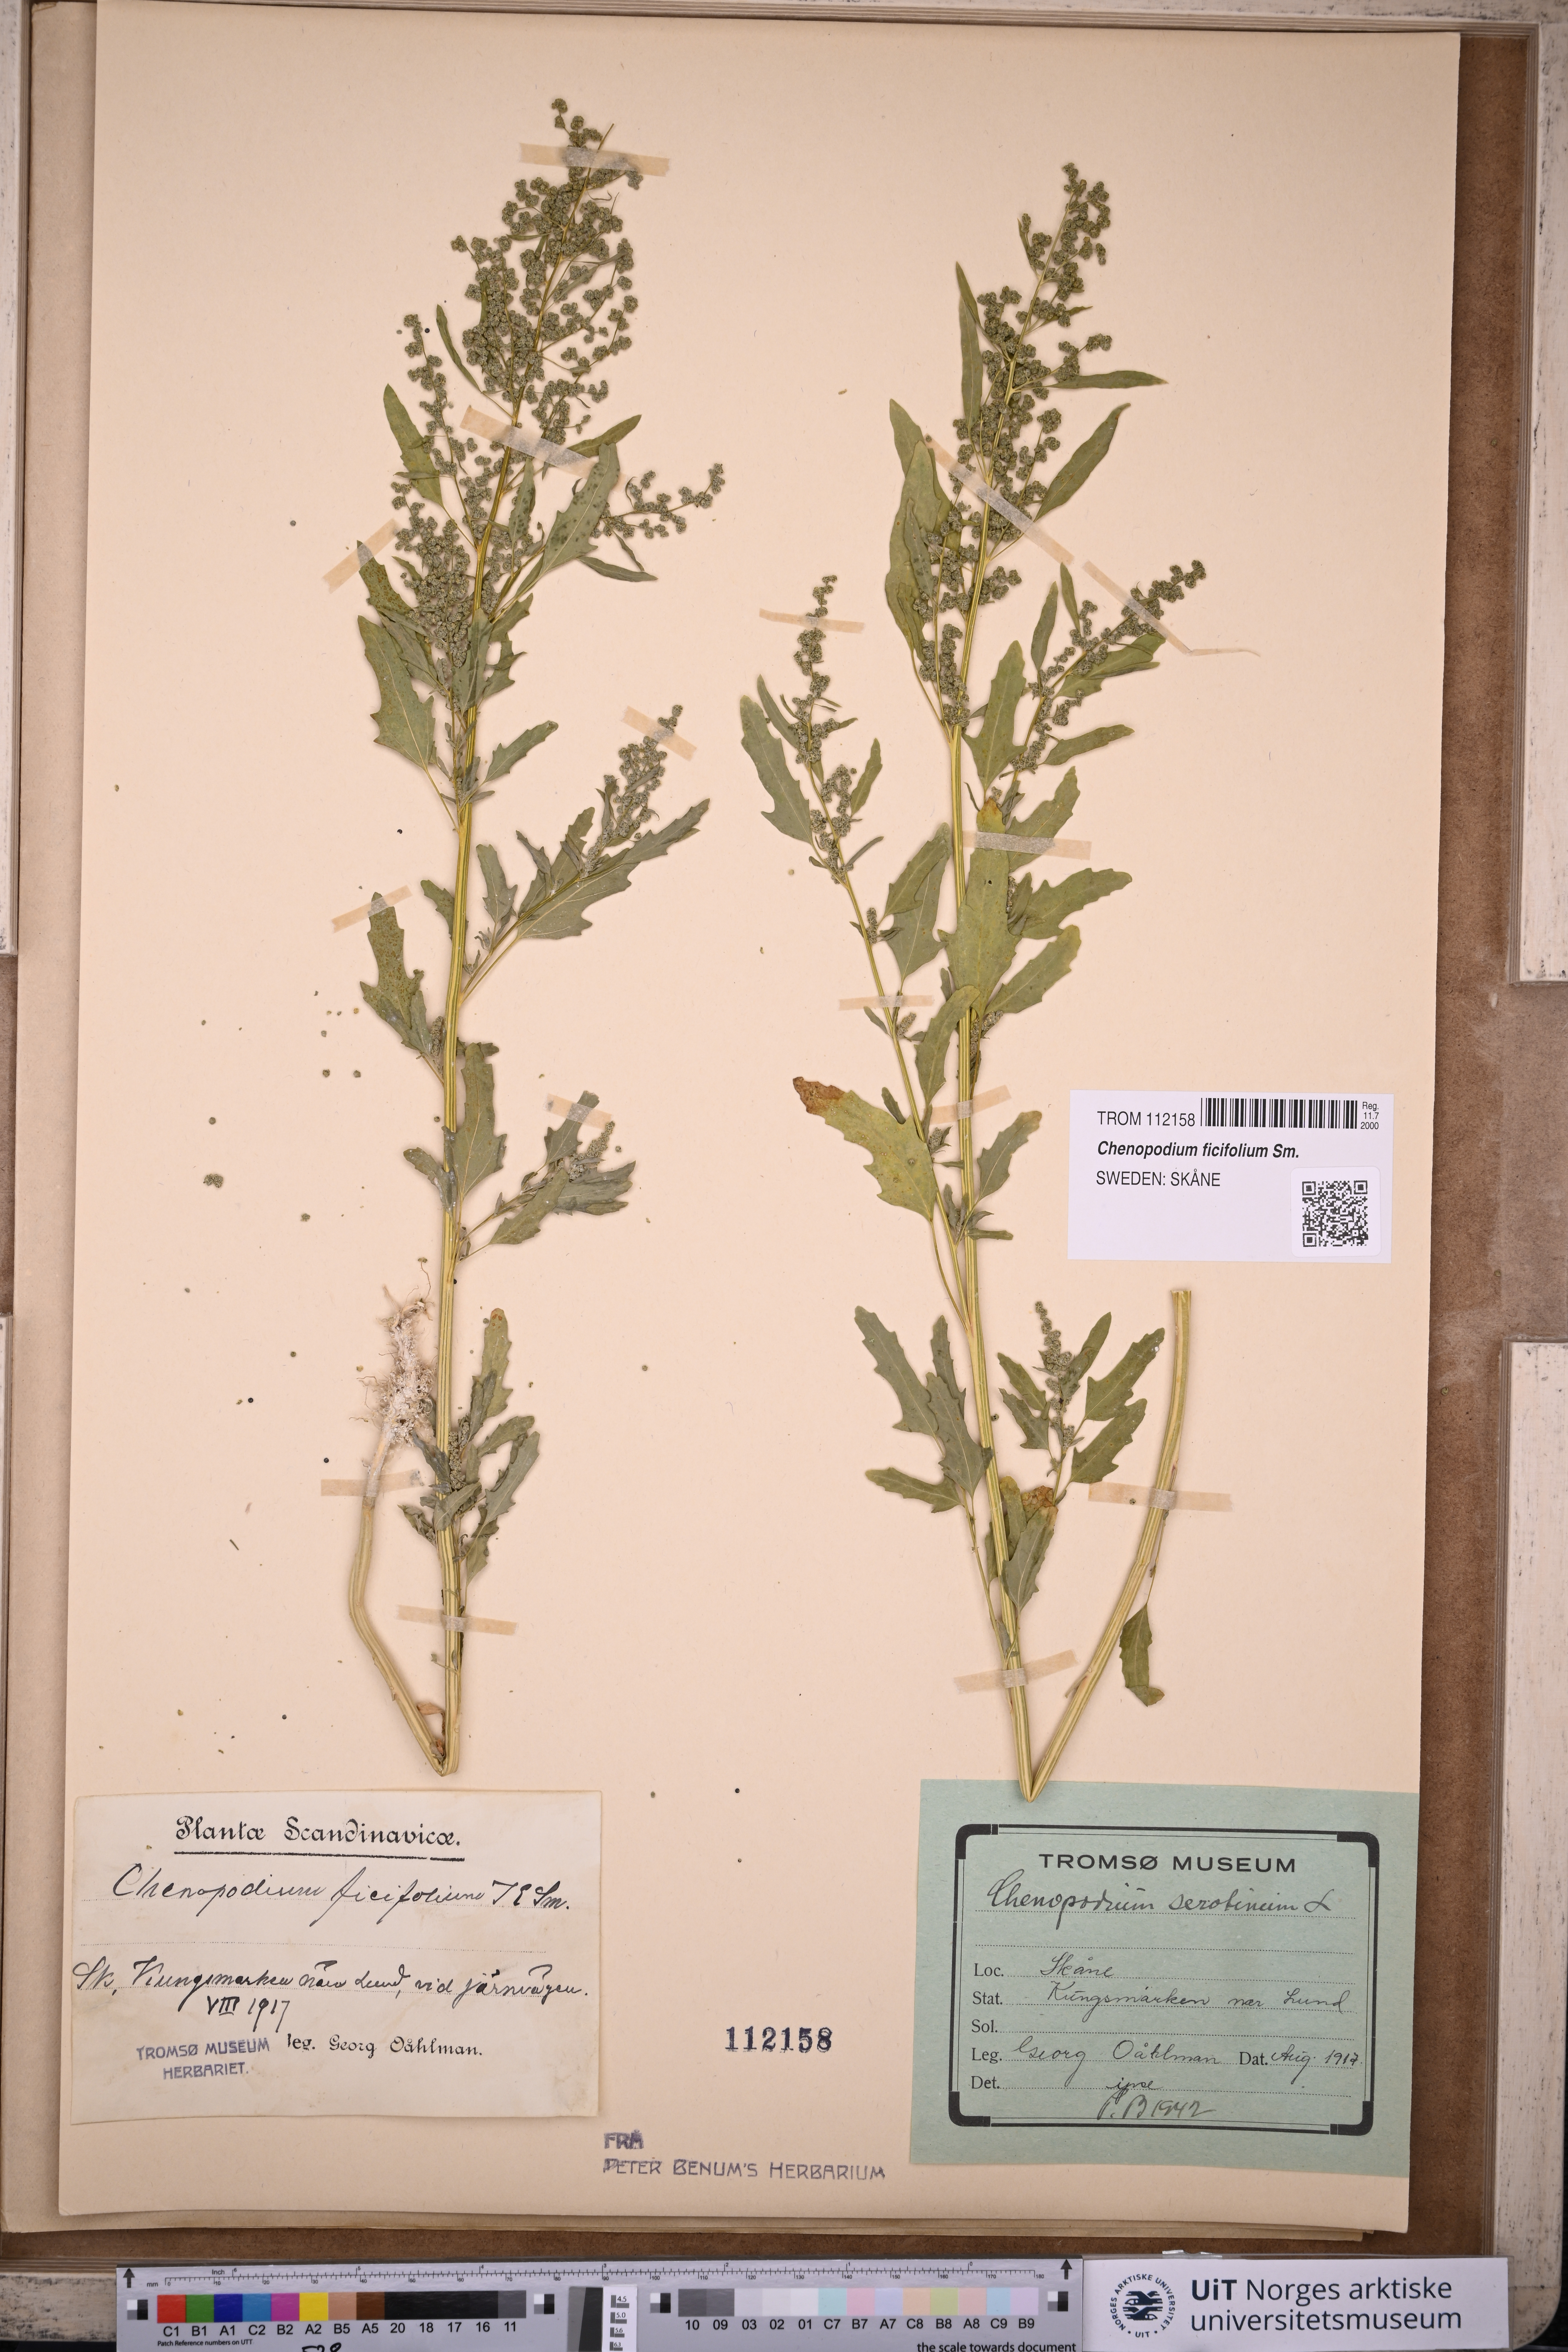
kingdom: Plantae
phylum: Tracheophyta
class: Magnoliopsida
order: Caryophyllales
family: Amaranthaceae
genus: Chenopodium
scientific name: Chenopodium ficifolium
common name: Fig-leaved goosefoot
